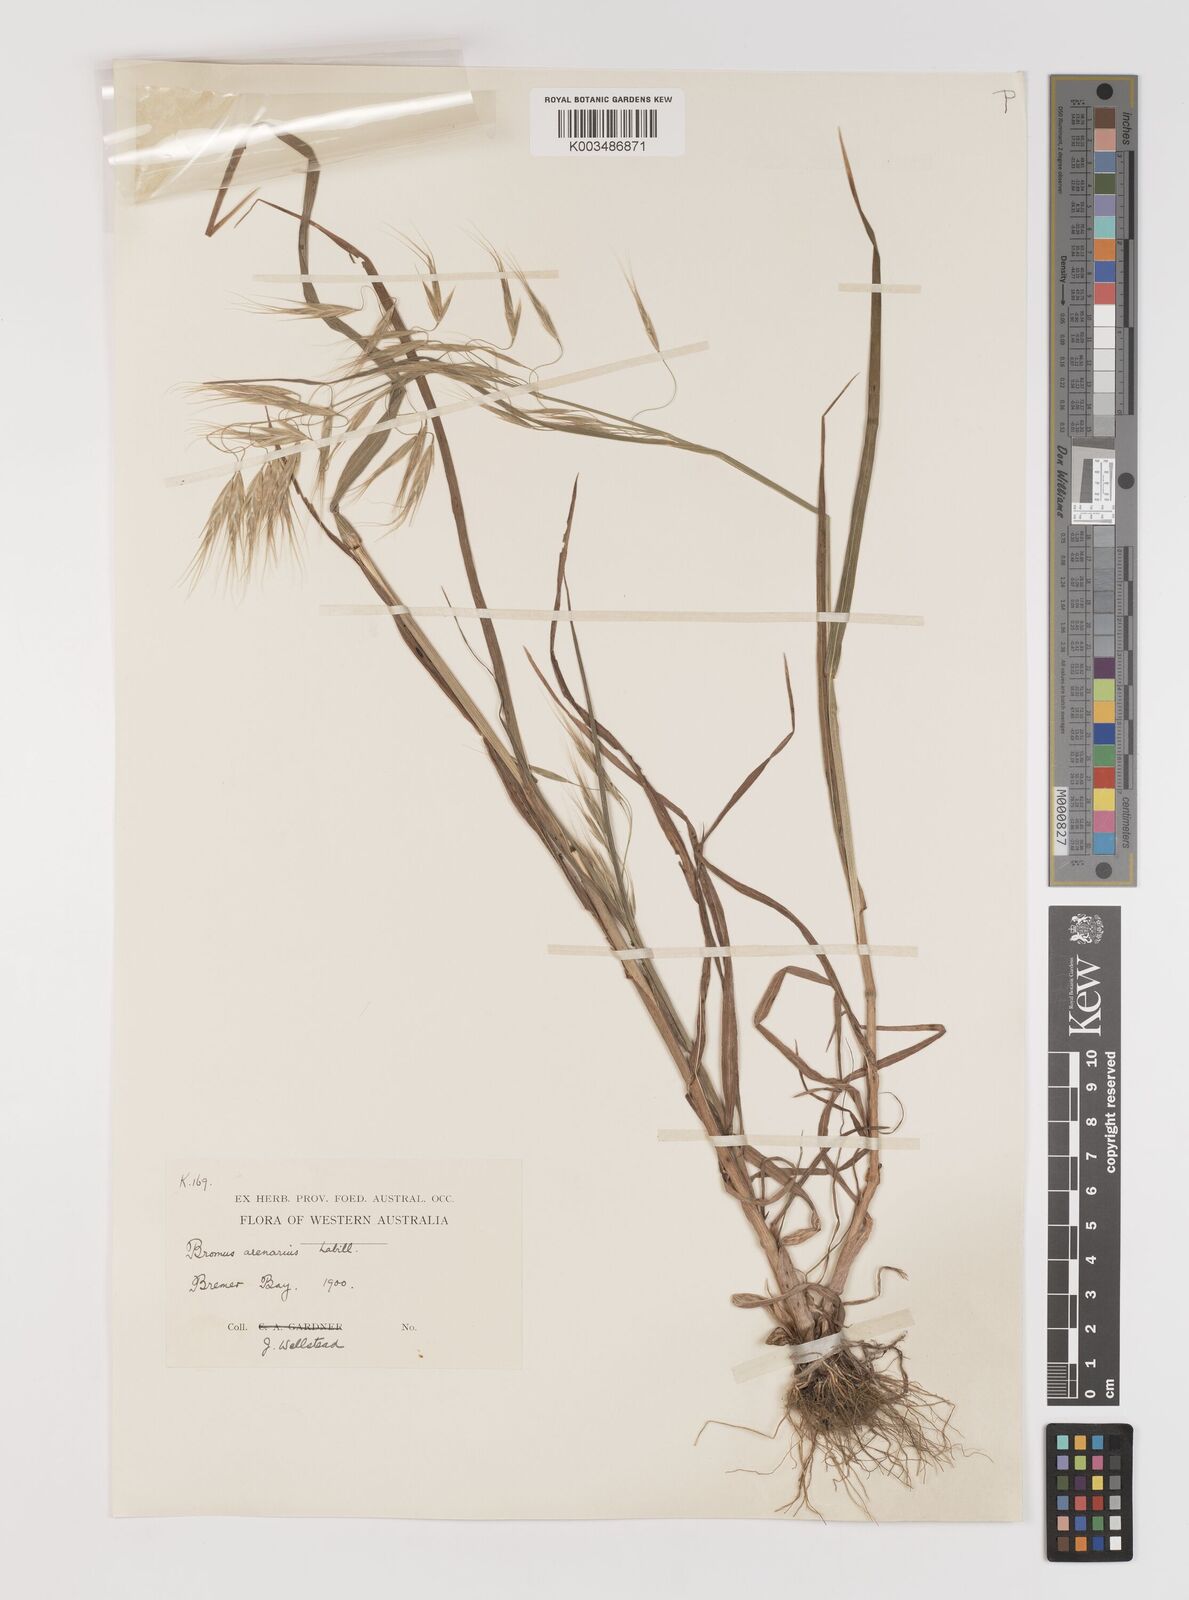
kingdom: Plantae
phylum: Tracheophyta
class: Liliopsida
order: Poales
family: Poaceae
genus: Bromus
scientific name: Bromus arenarius
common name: Australian brome
